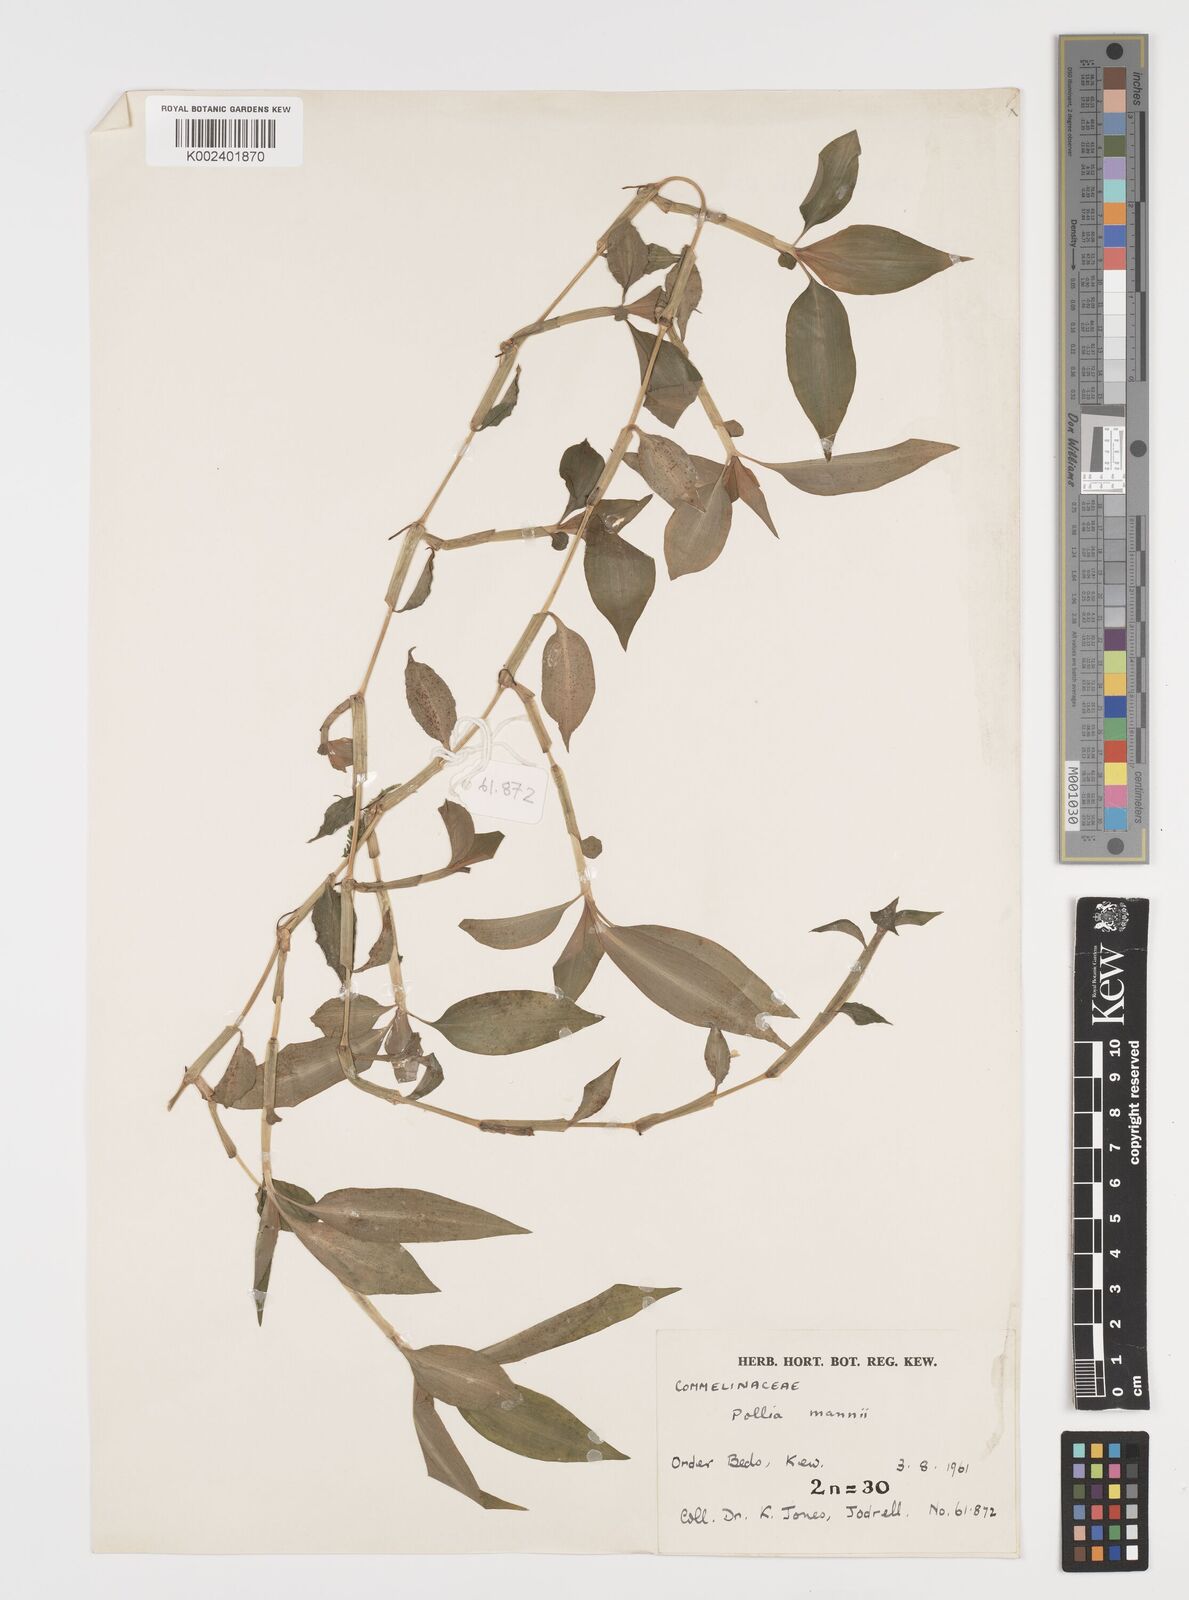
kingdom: Plantae
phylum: Tracheophyta
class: Liliopsida
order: Commelinales
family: Commelinaceae
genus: Pollia
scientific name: Pollia mannii
